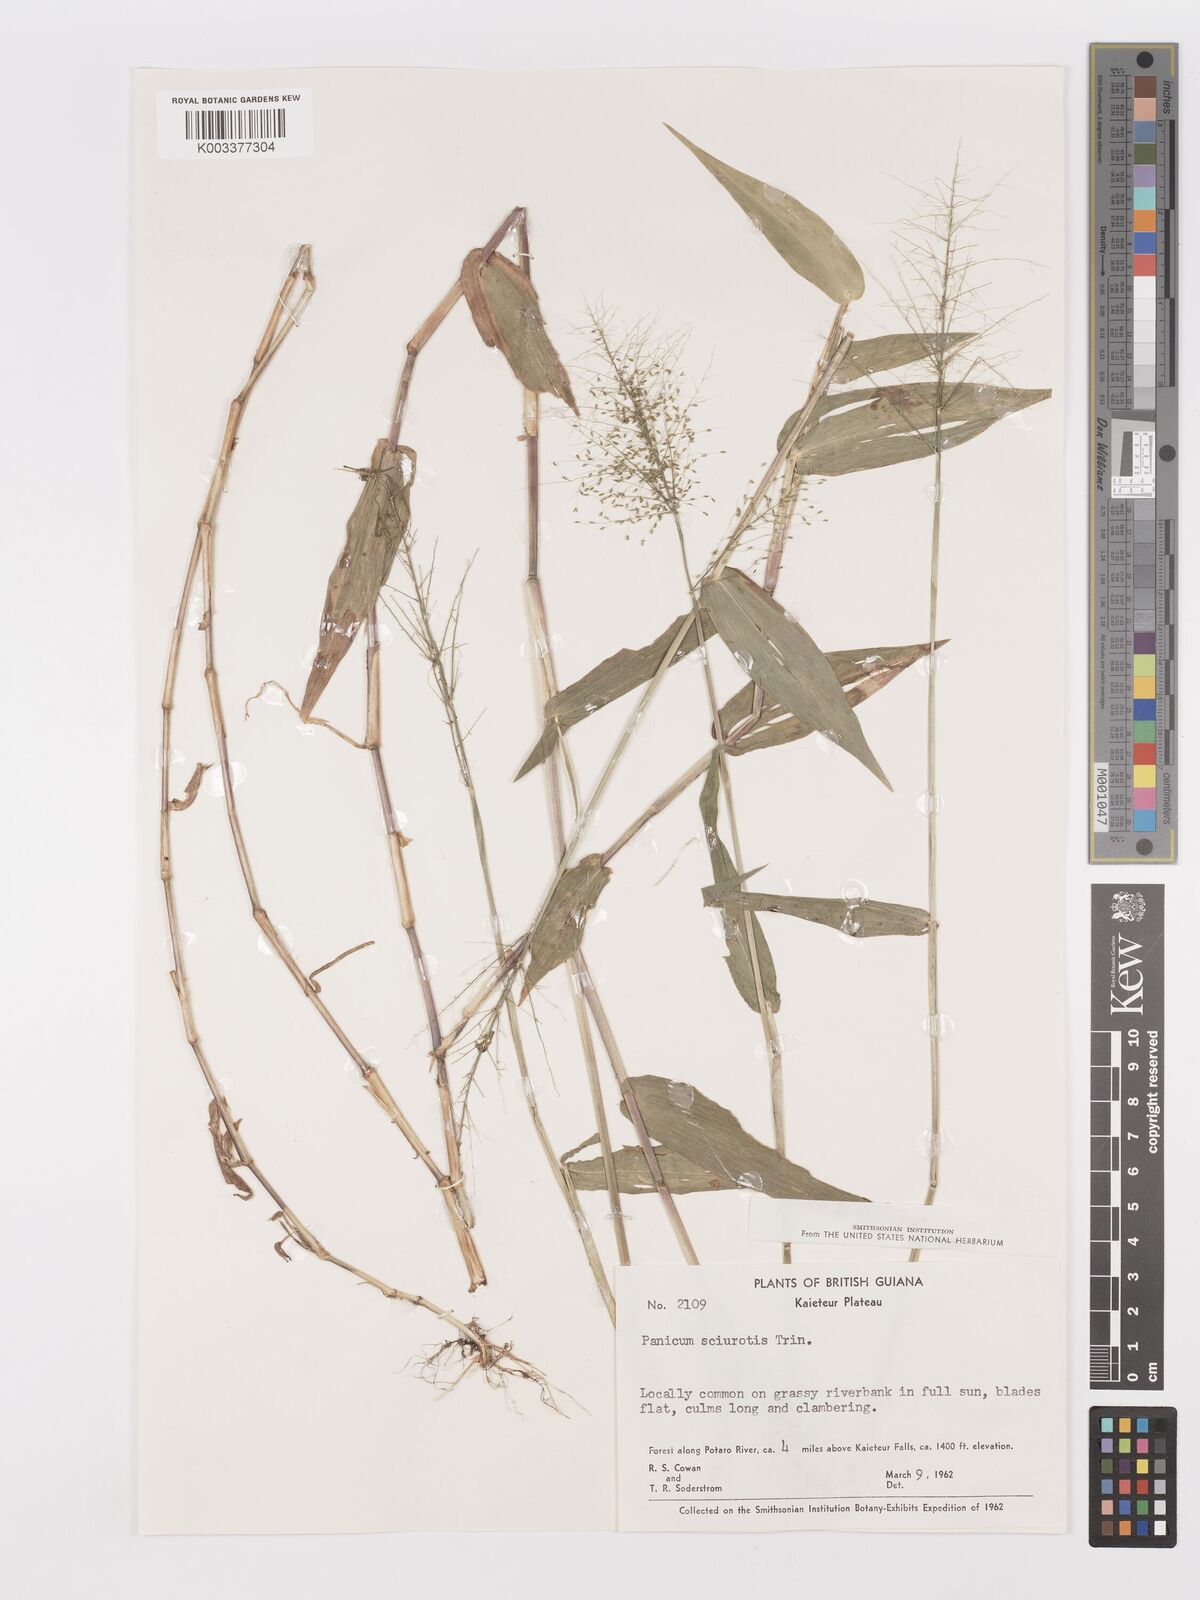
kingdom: Plantae
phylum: Tracheophyta
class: Liliopsida
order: Poales
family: Poaceae
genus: Dichanthelium
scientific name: Dichanthelium sciurotoides
